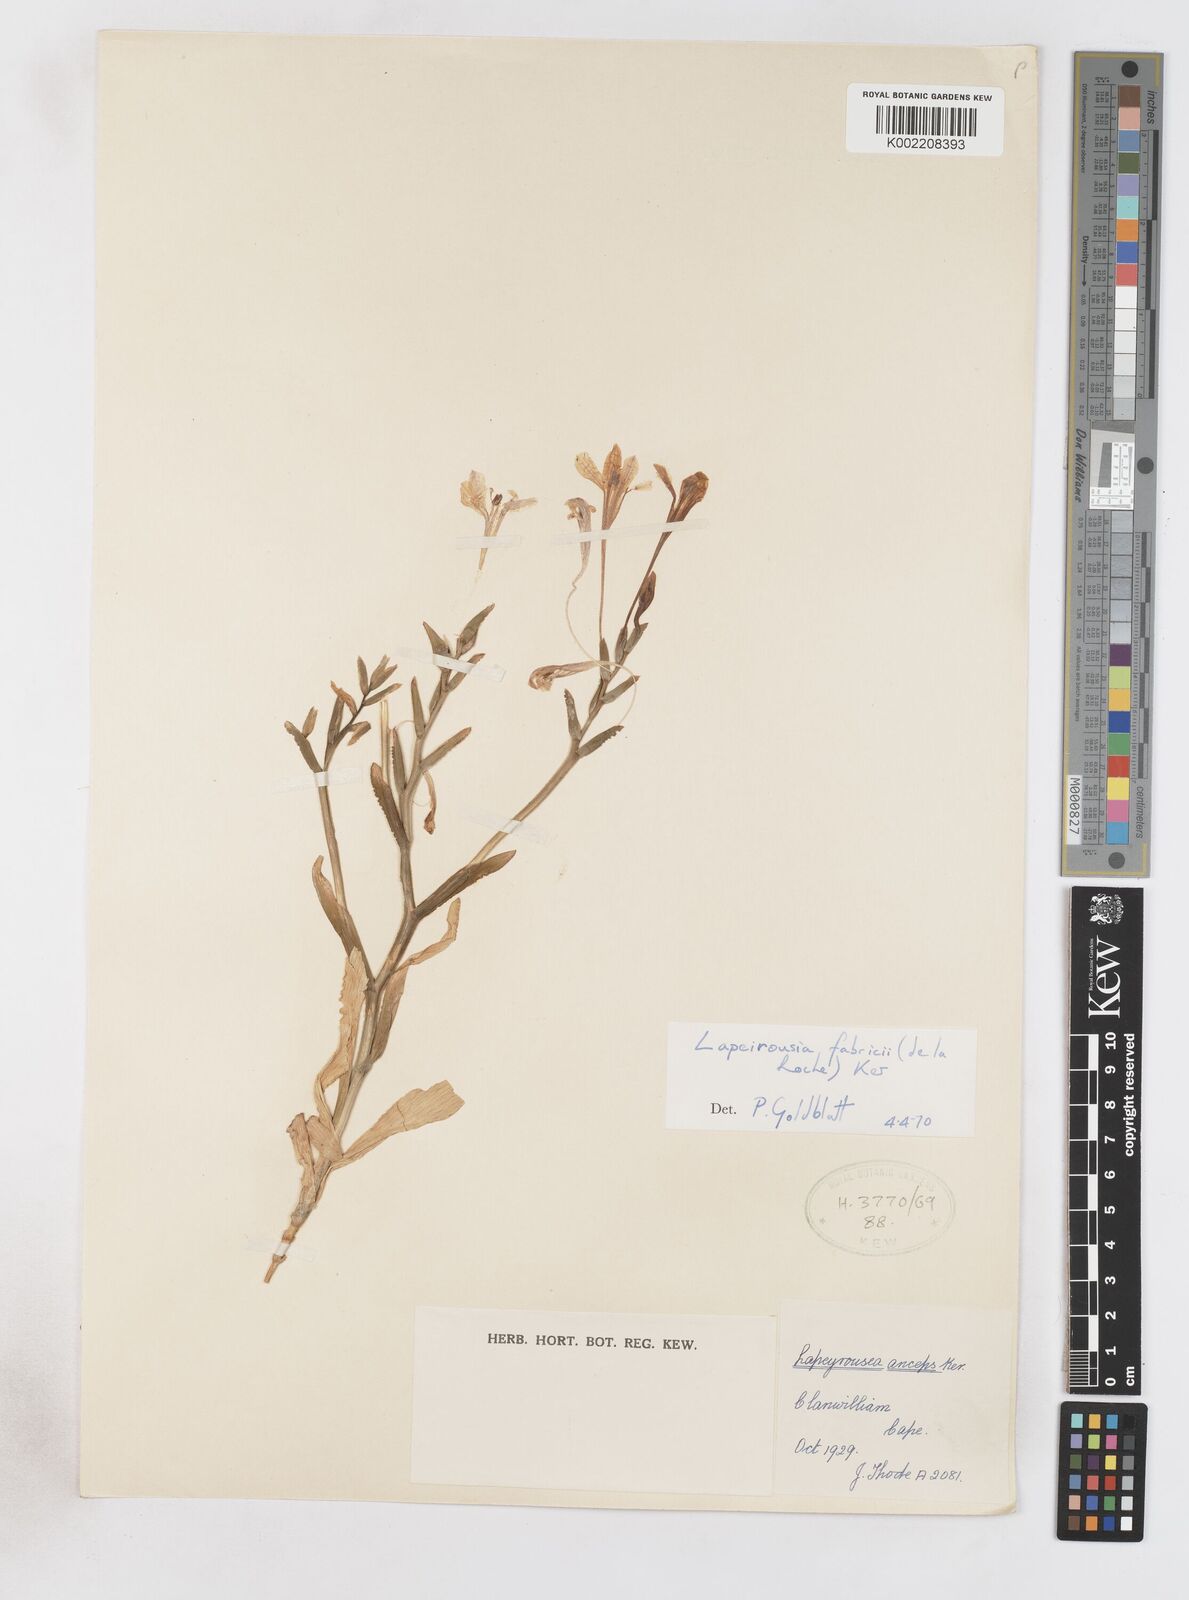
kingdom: Plantae
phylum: Tracheophyta
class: Liliopsida
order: Asparagales
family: Iridaceae
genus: Lapeirousia
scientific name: Lapeirousia fabricii
